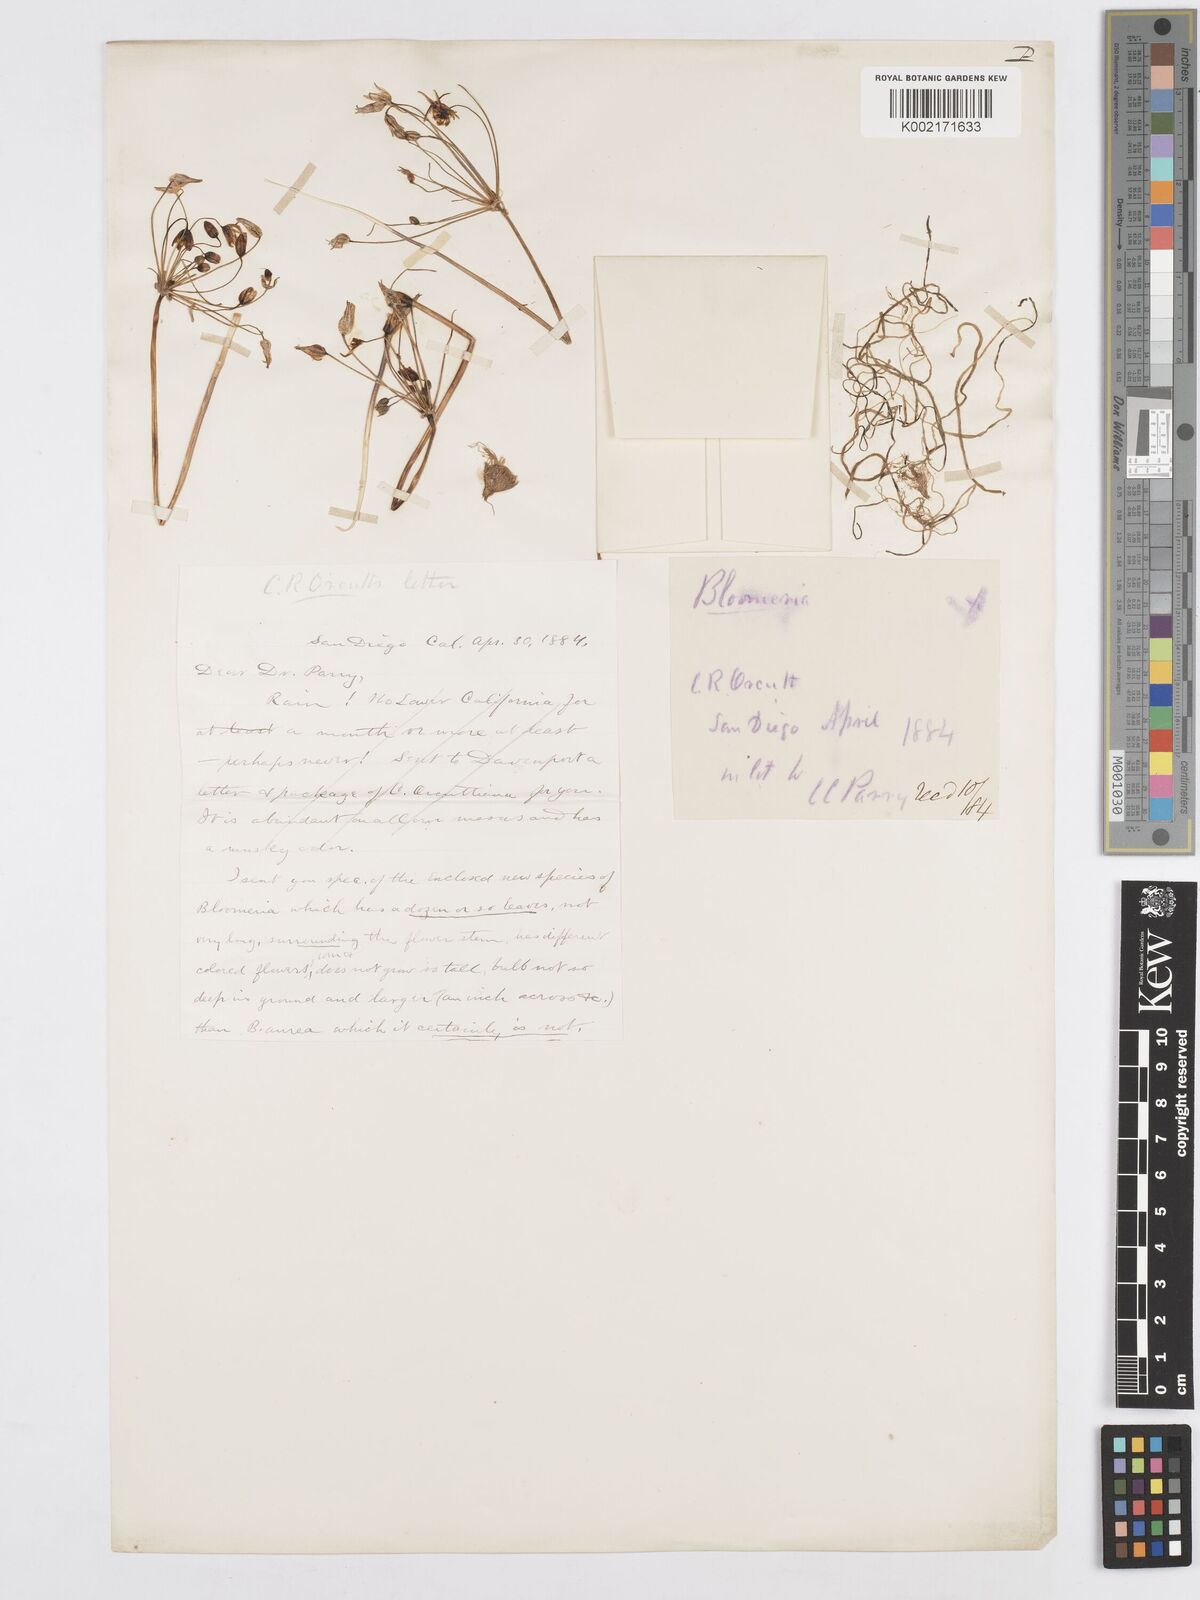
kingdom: Plantae
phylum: Tracheophyta
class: Liliopsida
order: Asparagales
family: Asparagaceae
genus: Bloomeria
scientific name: Bloomeria clevelandii
